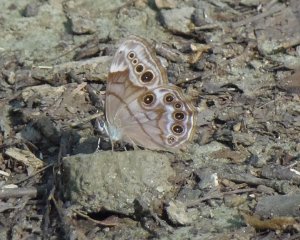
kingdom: Animalia
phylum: Arthropoda
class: Insecta
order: Lepidoptera
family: Nymphalidae
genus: Lethe
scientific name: Lethe anthedon
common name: Northern Pearly-Eye
